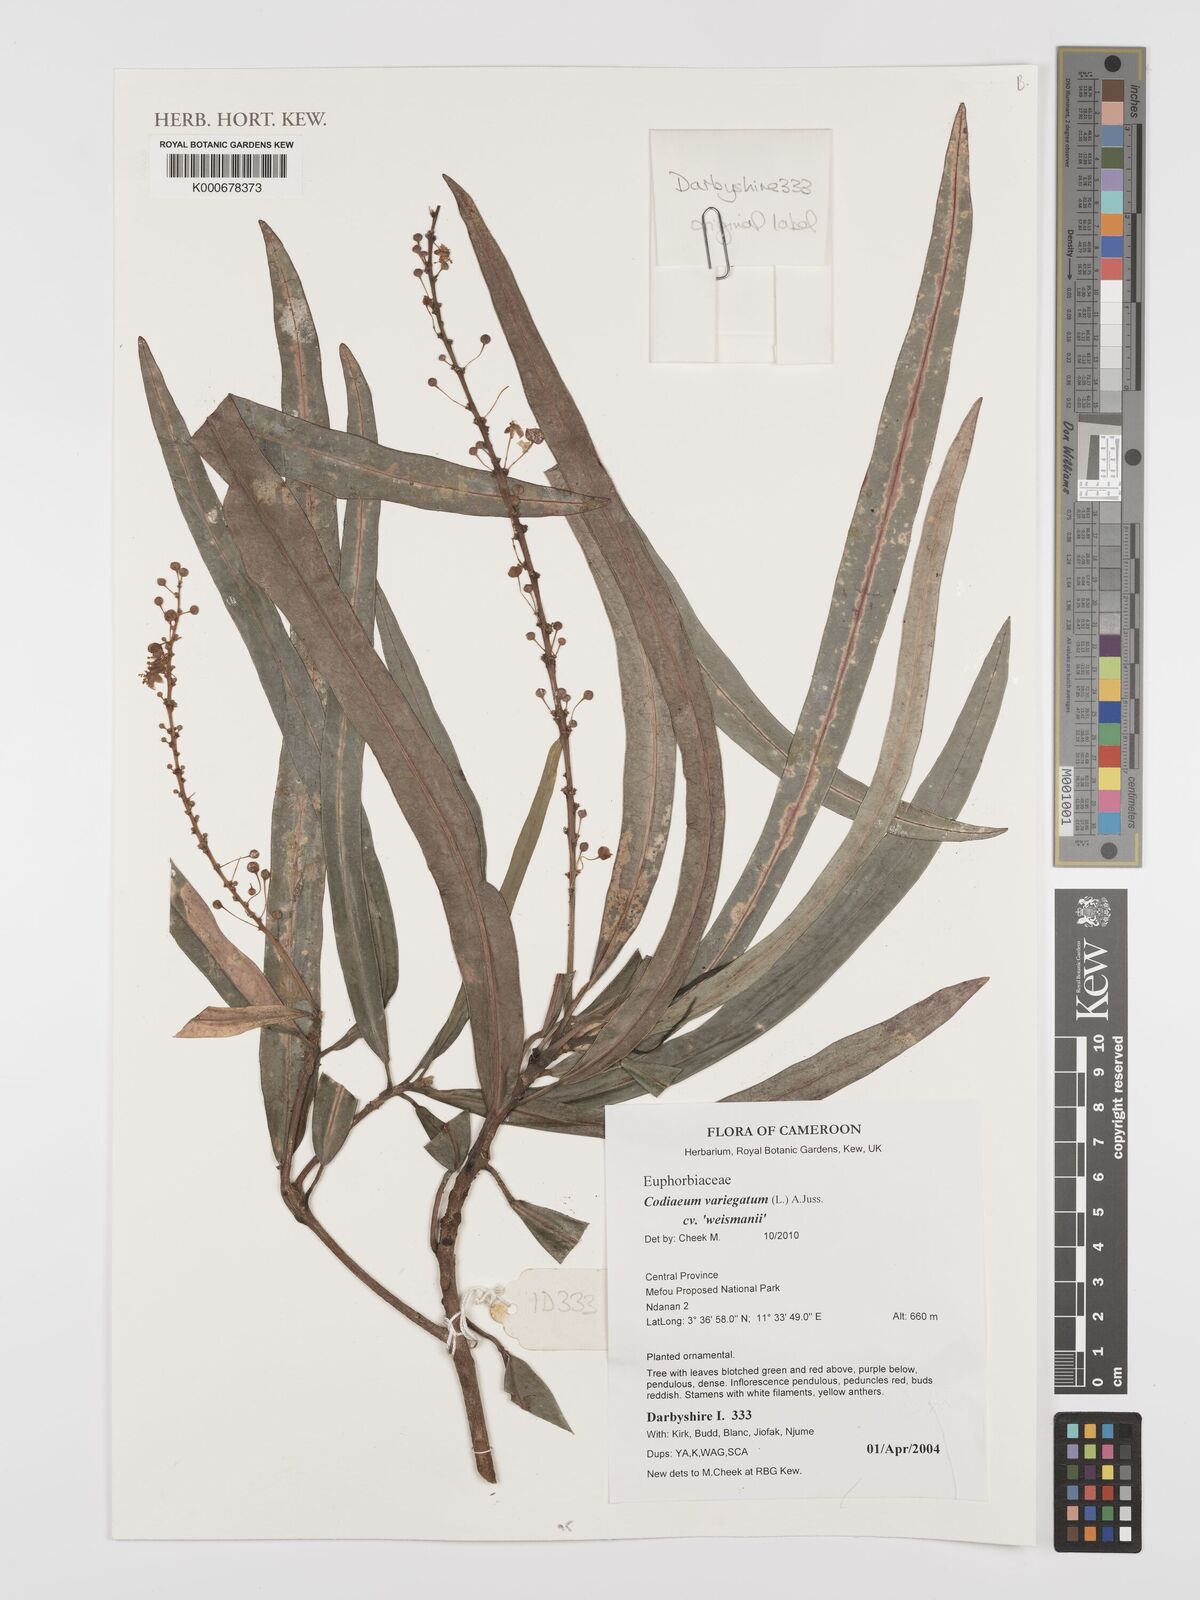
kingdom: Plantae
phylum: Tracheophyta
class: Magnoliopsida
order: Malpighiales
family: Euphorbiaceae
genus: Codiaeum
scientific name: Codiaeum variegatum
